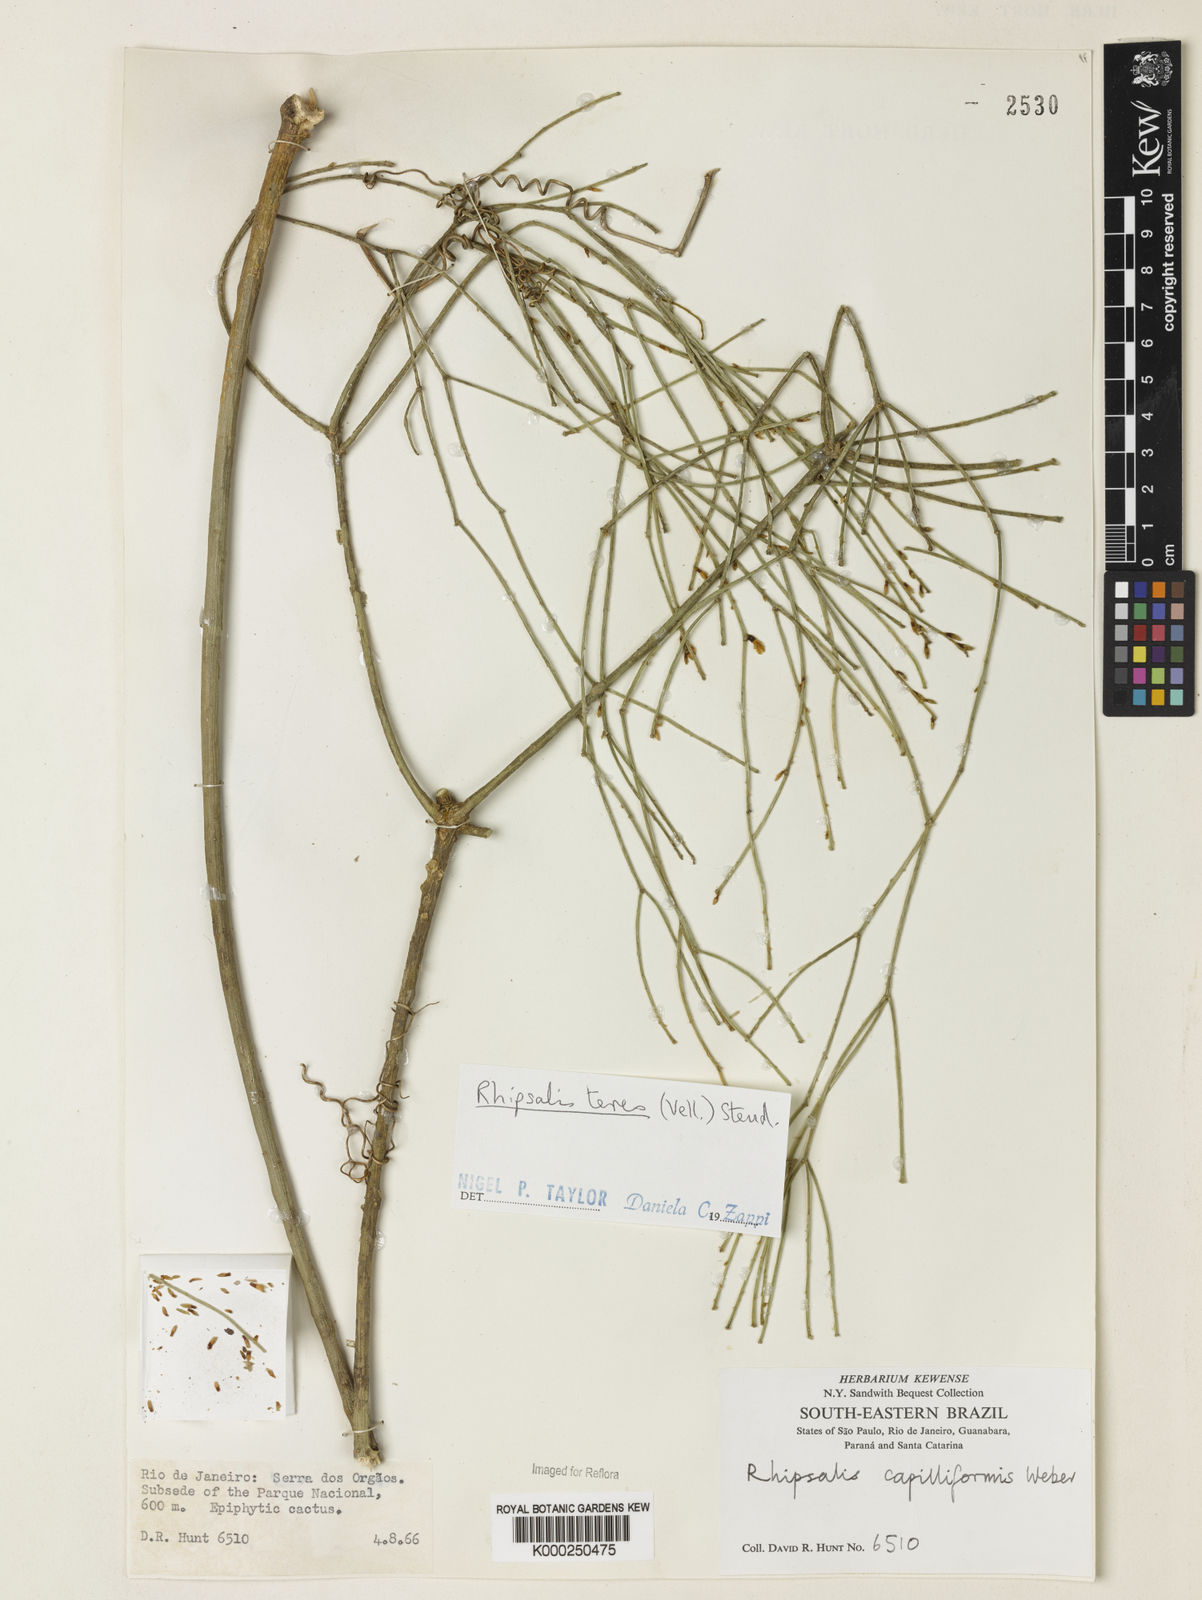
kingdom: Plantae
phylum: Tracheophyta
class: Magnoliopsida
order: Caryophyllales
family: Cactaceae
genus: Rhipsalis
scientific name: Rhipsalis teres
